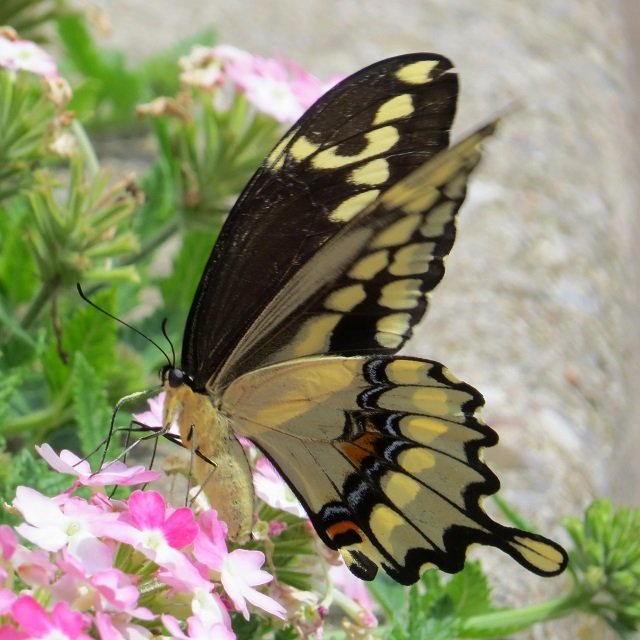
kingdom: Animalia
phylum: Arthropoda
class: Insecta
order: Lepidoptera
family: Papilionidae
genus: Papilio
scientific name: Papilio cresphontes
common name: Eastern Giant Swallowtail
